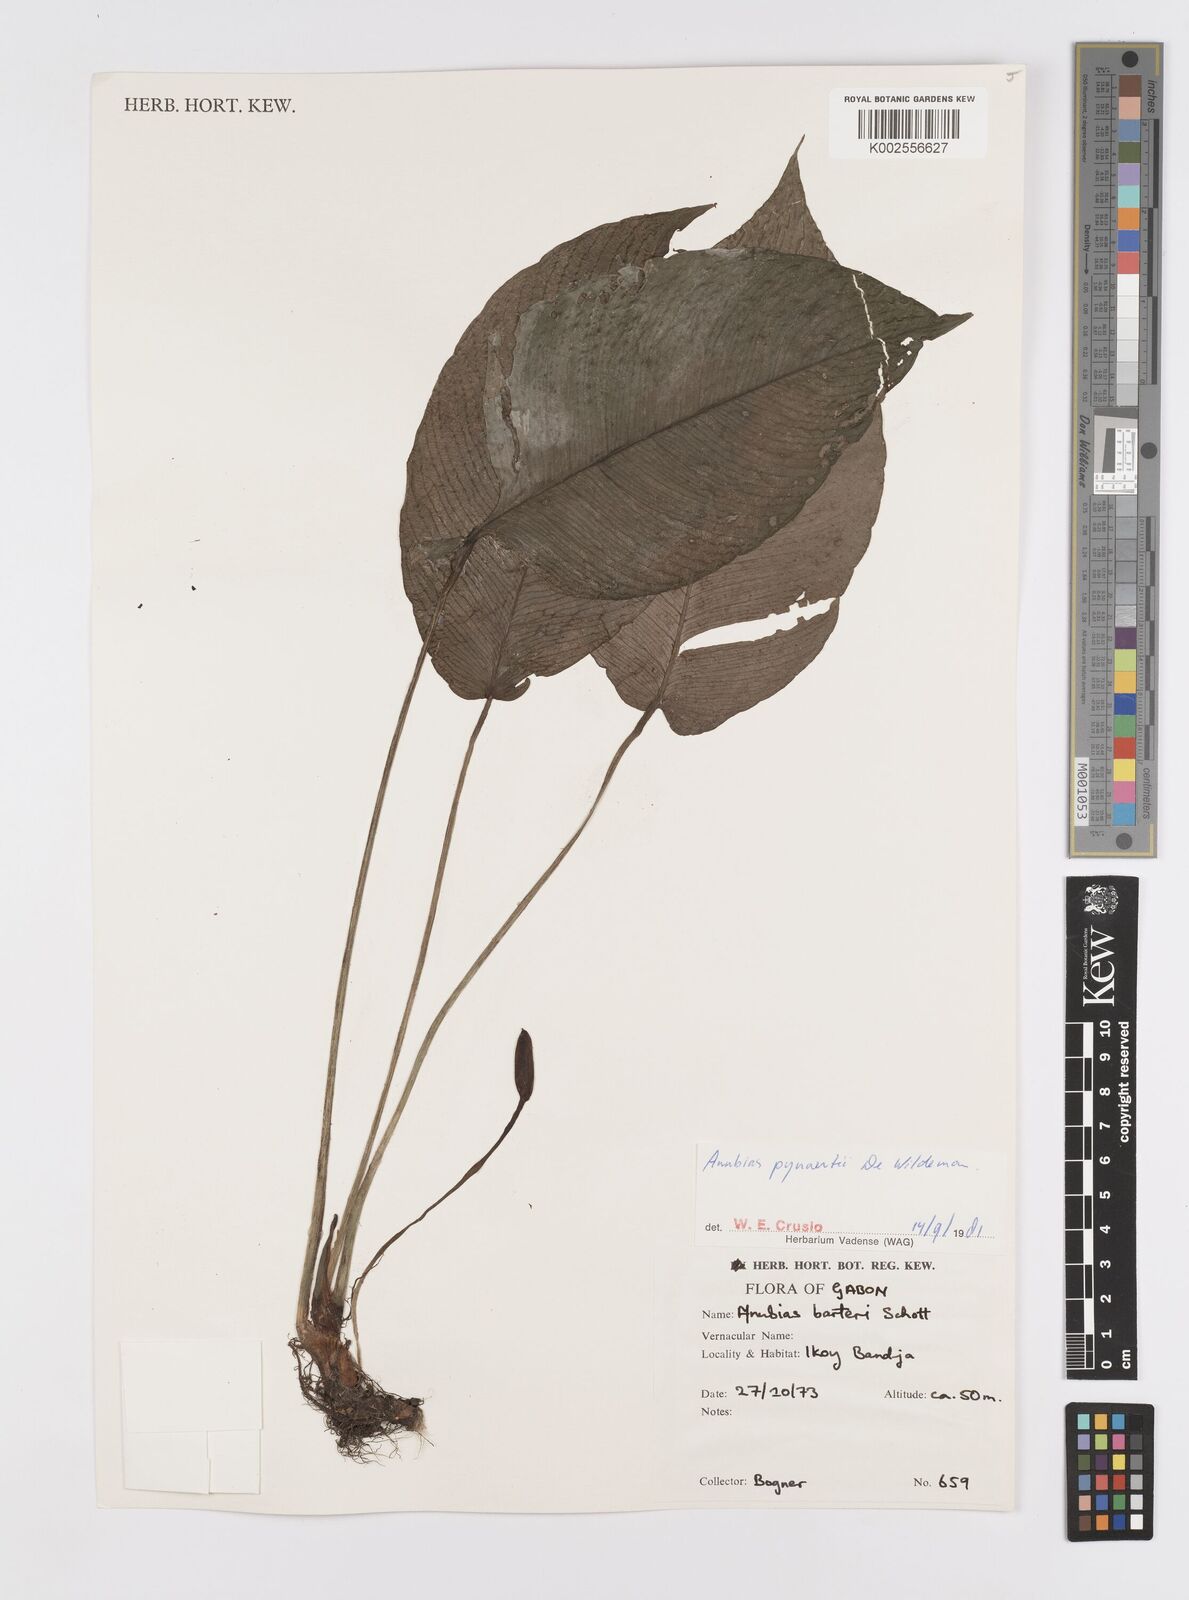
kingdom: Plantae
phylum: Tracheophyta
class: Liliopsida
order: Alismatales
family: Araceae
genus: Anubias
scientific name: Anubias pynaertii
